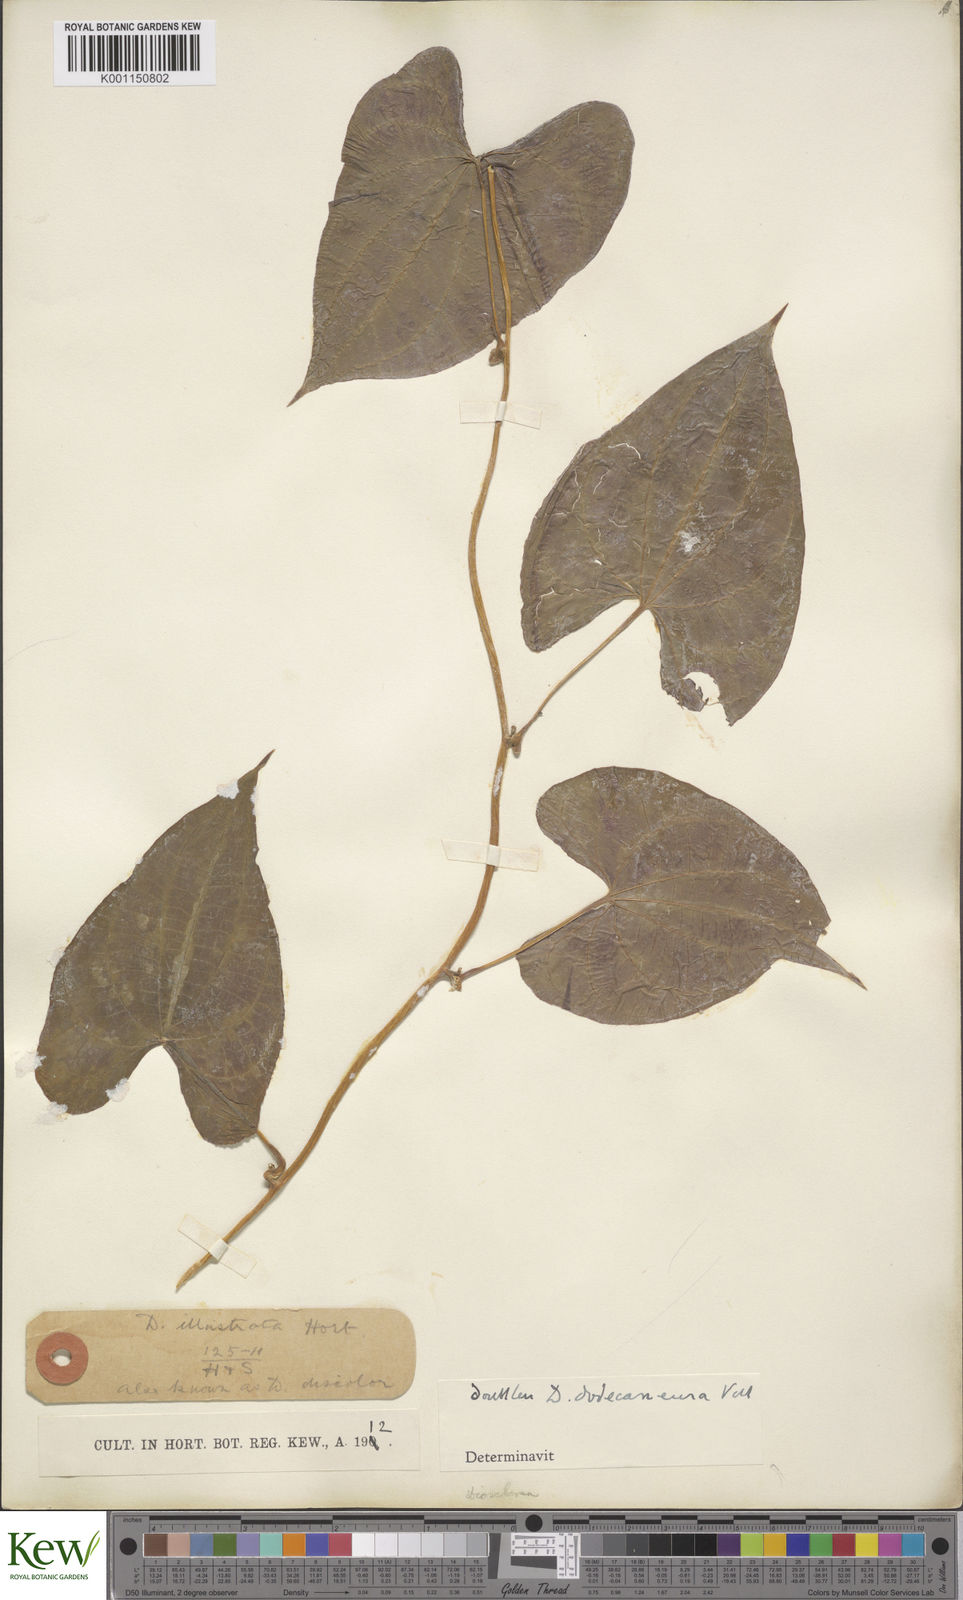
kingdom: Plantae
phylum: Tracheophyta
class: Liliopsida
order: Dioscoreales
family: Dioscoreaceae
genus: Dioscorea
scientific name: Dioscorea dodecaneura
